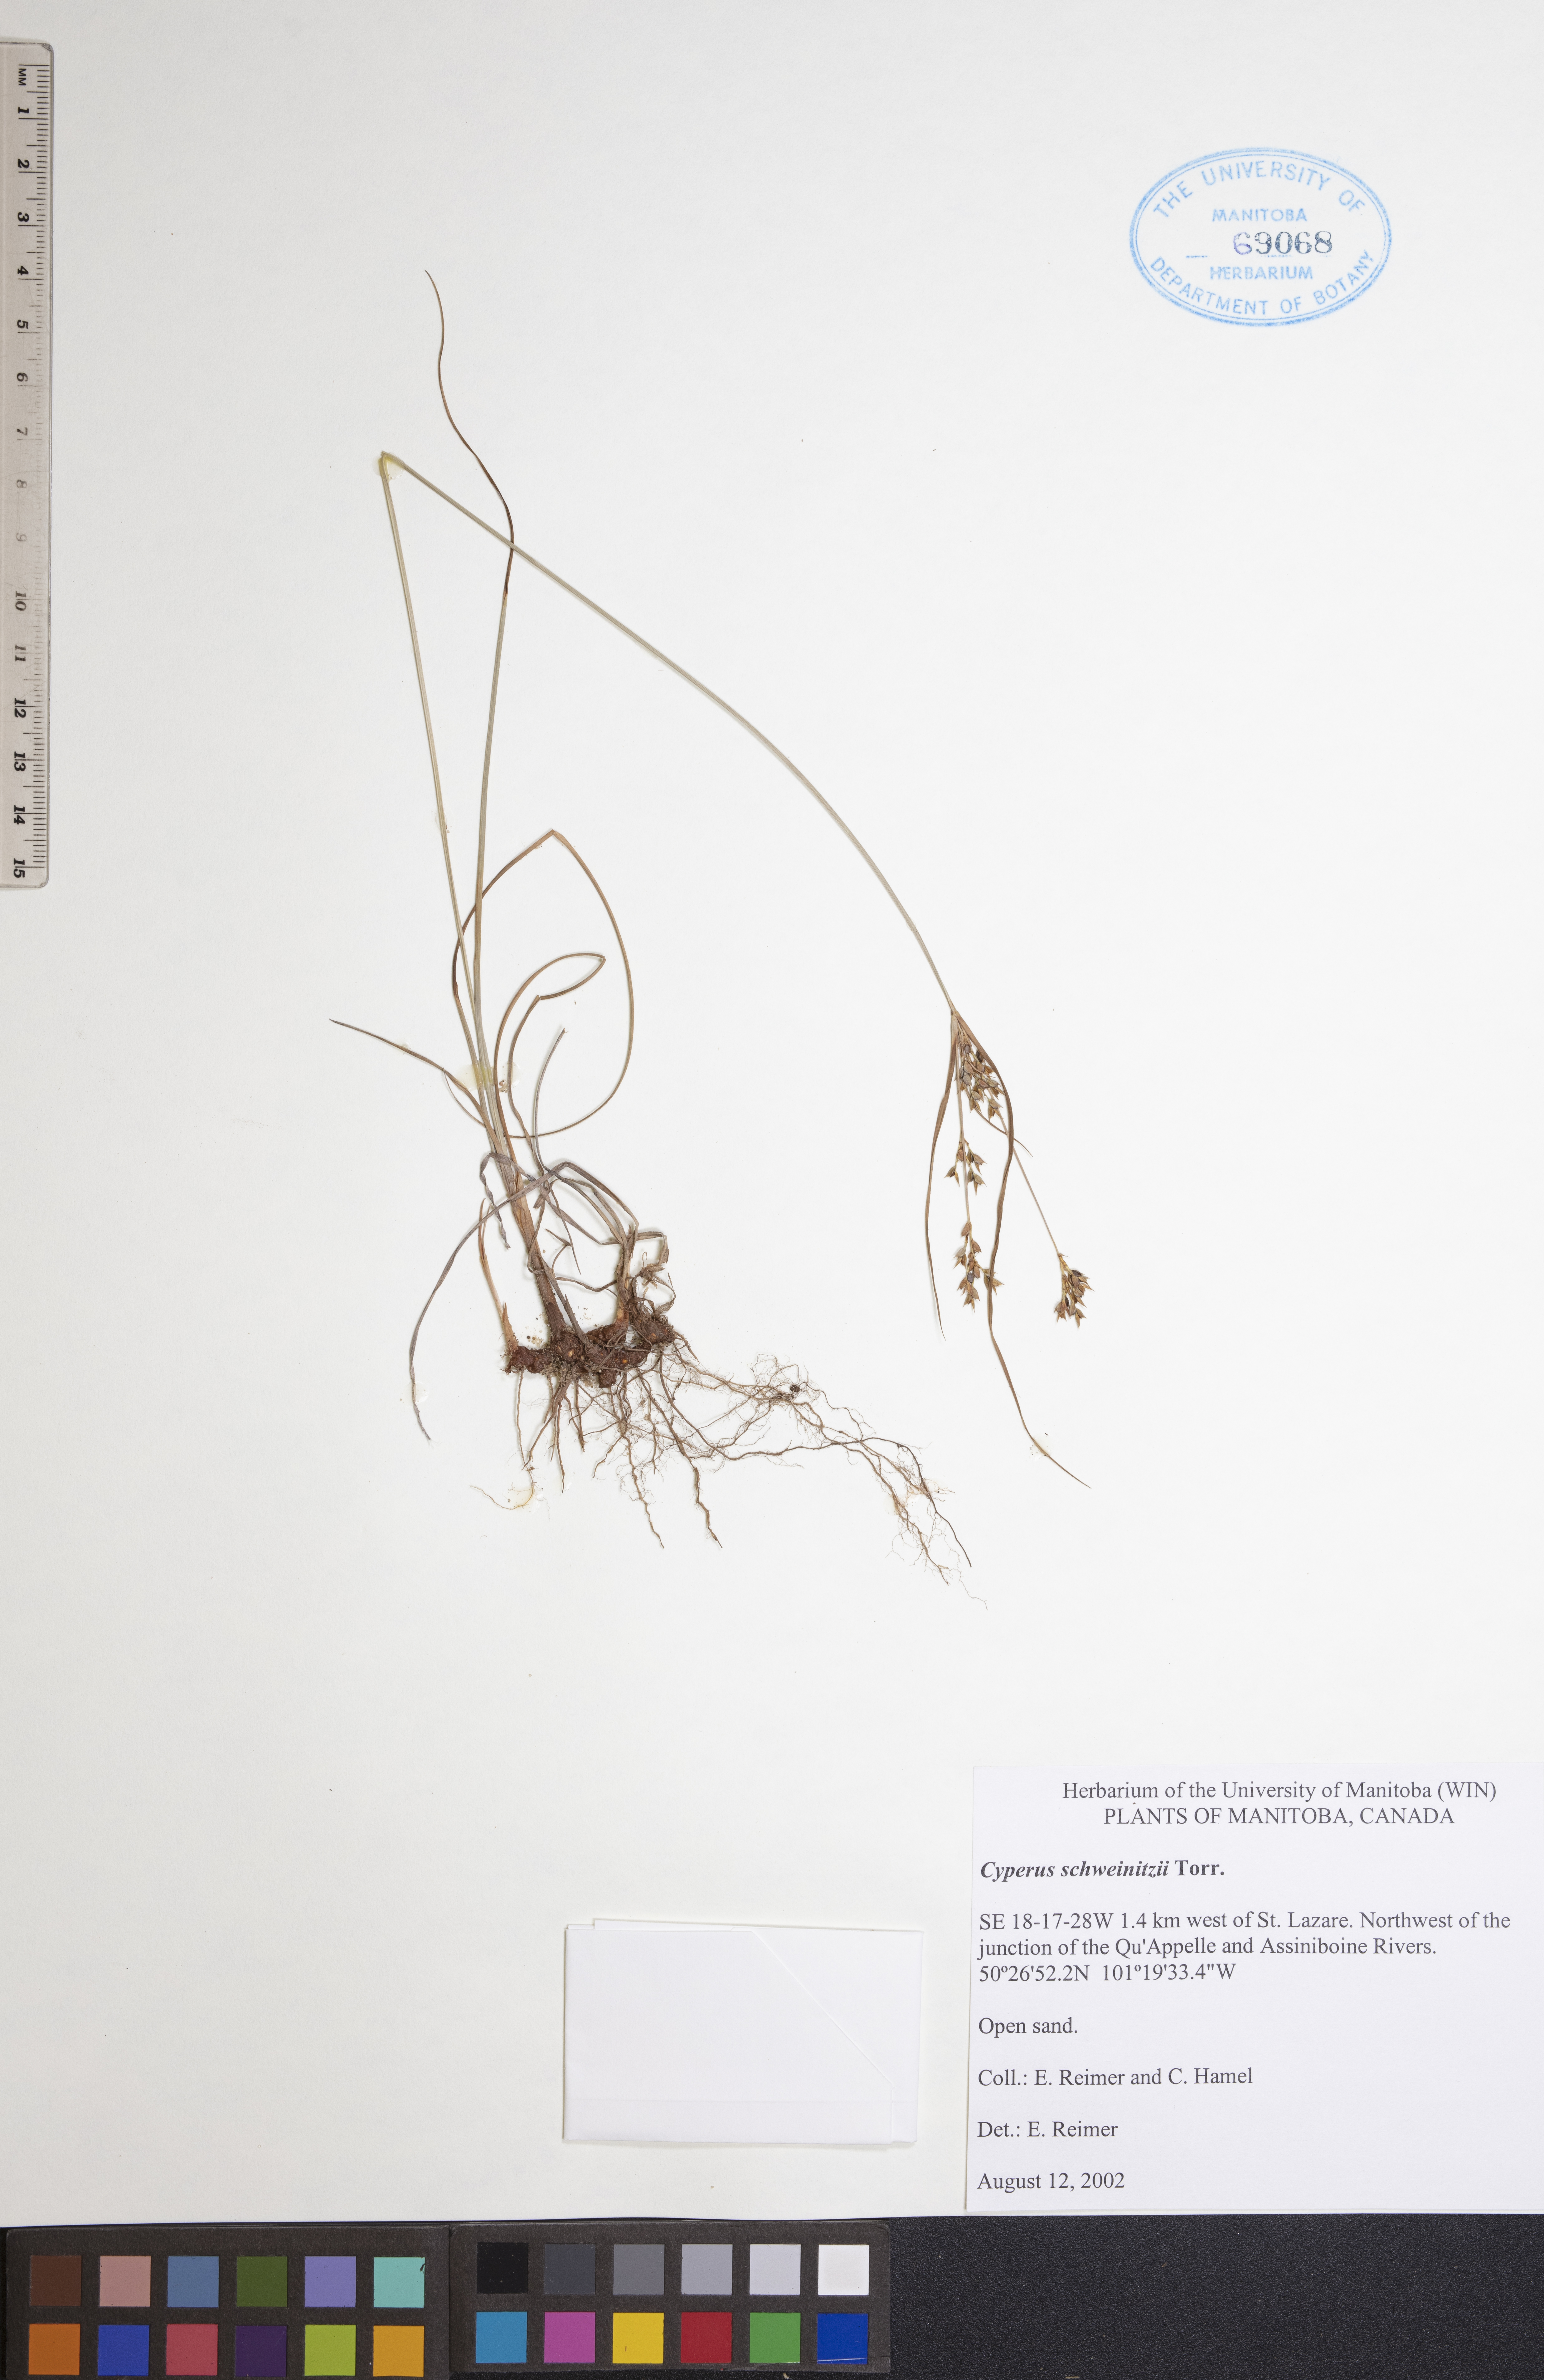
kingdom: Plantae
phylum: Tracheophyta
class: Liliopsida
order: Poales
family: Cyperaceae
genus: Cyperus
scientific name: Cyperus schweinitzii
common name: Schweinitz's cyperus
